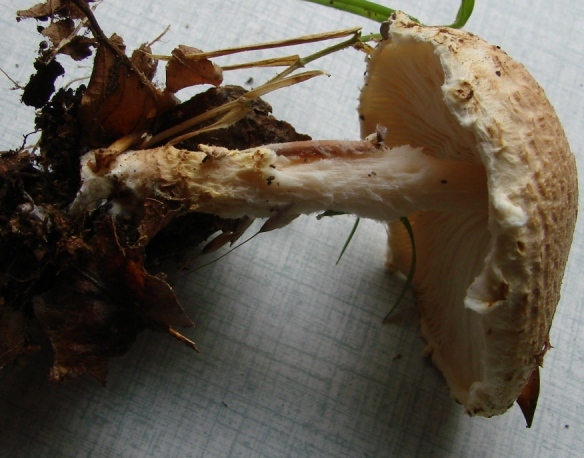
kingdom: Fungi
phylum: Basidiomycota
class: Agaricomycetes
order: Agaricales
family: Agaricaceae
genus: Lepiota
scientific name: Lepiota magnispora
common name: gulfnugget parasolhat
